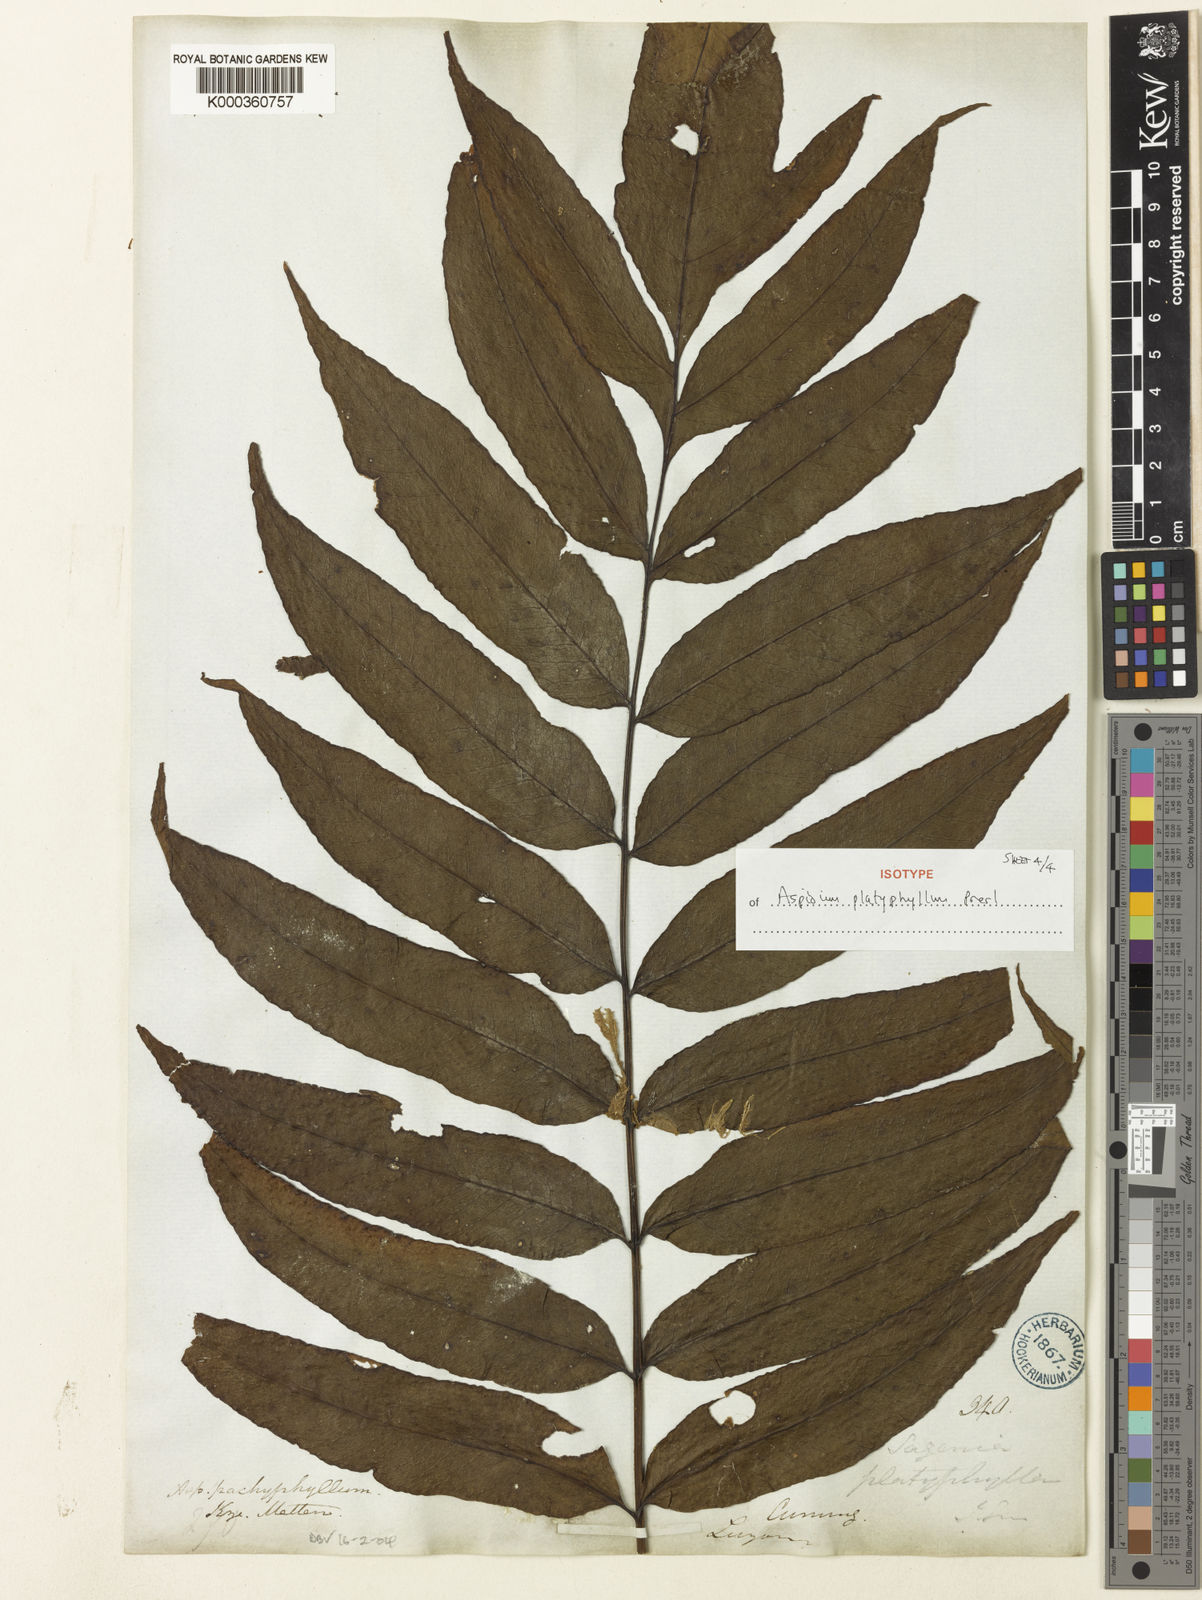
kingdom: Plantae
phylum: Tracheophyta
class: Polypodiopsida
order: Polypodiales
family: Tectariaceae
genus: Tectaria
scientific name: Tectaria repanda
